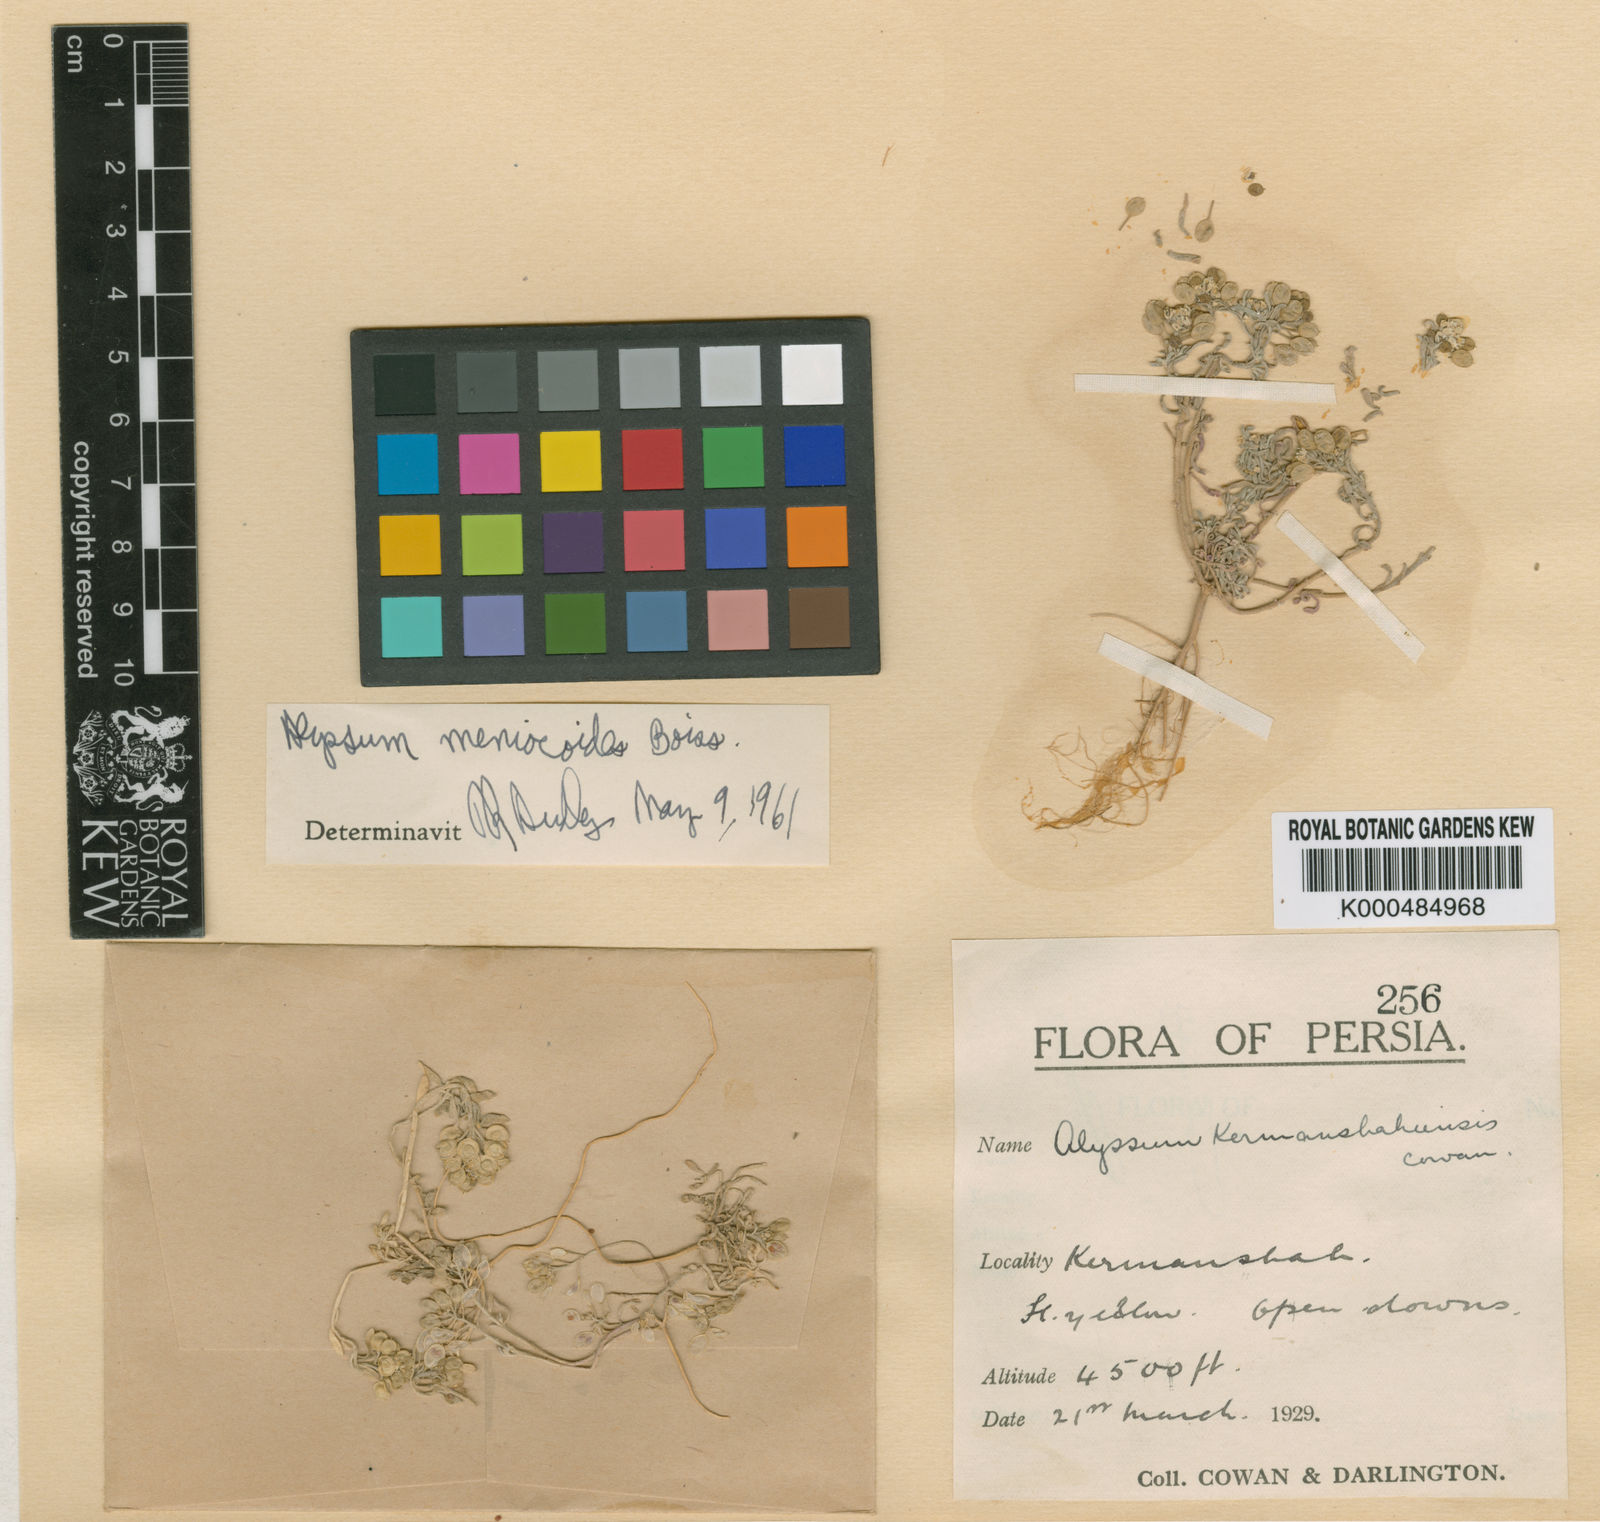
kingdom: Plantae
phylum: Tracheophyta
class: Magnoliopsida
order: Brassicales
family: Brassicaceae
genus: Meniocus
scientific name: Meniocus
